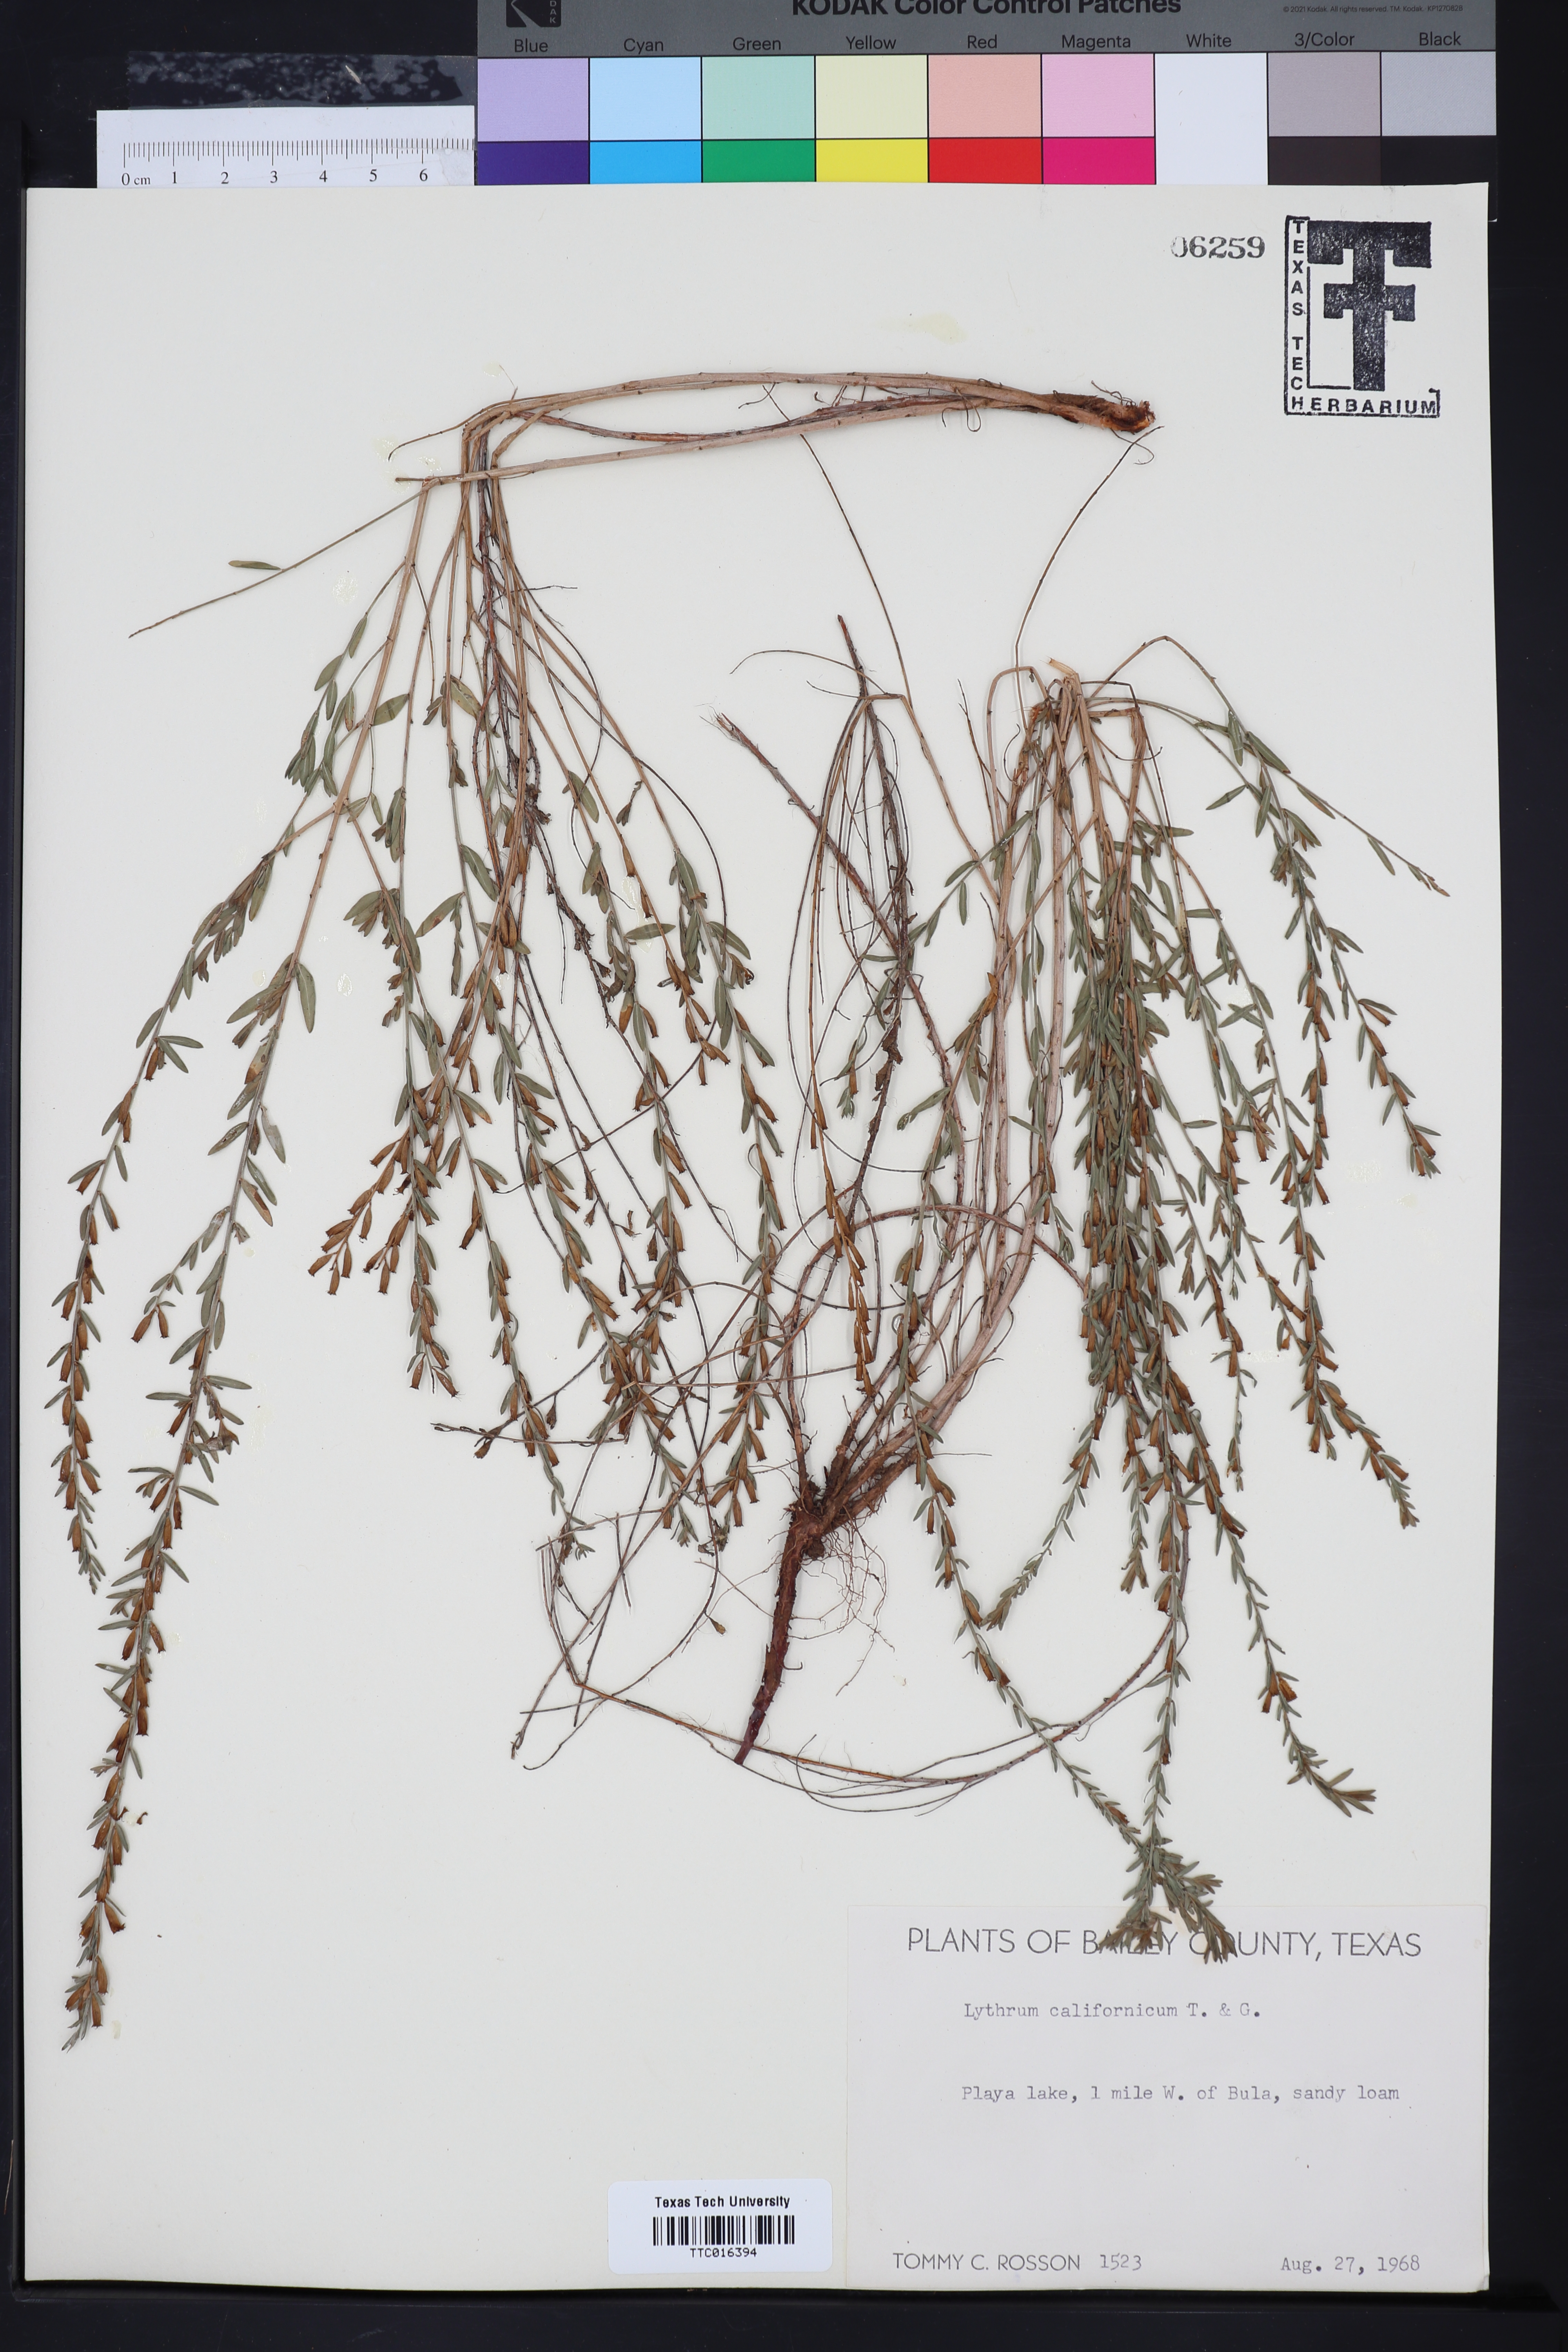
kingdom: Plantae
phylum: Tracheophyta
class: Magnoliopsida
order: Myrtales
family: Lythraceae
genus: Lythrum
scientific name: Lythrum californicum
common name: California loosestrife
